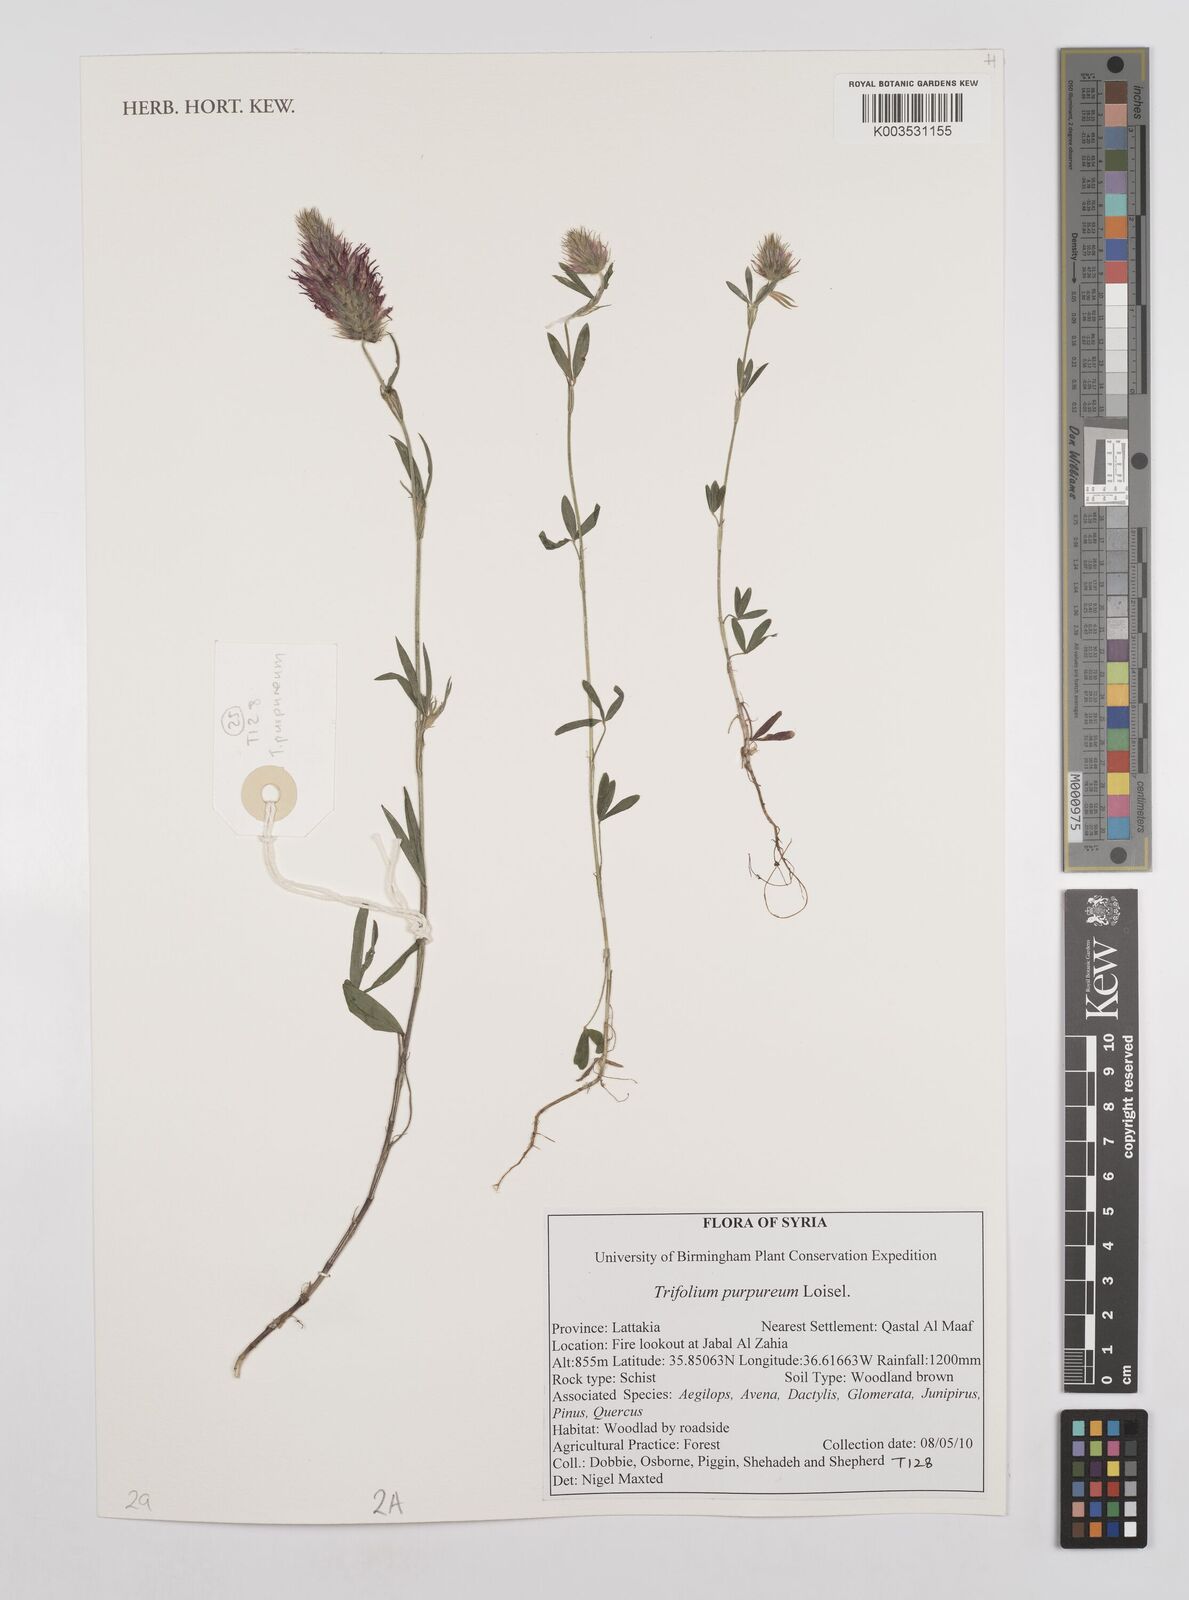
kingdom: Plantae
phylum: Tracheophyta
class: Magnoliopsida
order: Fabales
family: Fabaceae
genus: Trifolium
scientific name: Trifolium purpureum
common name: Purple clover
